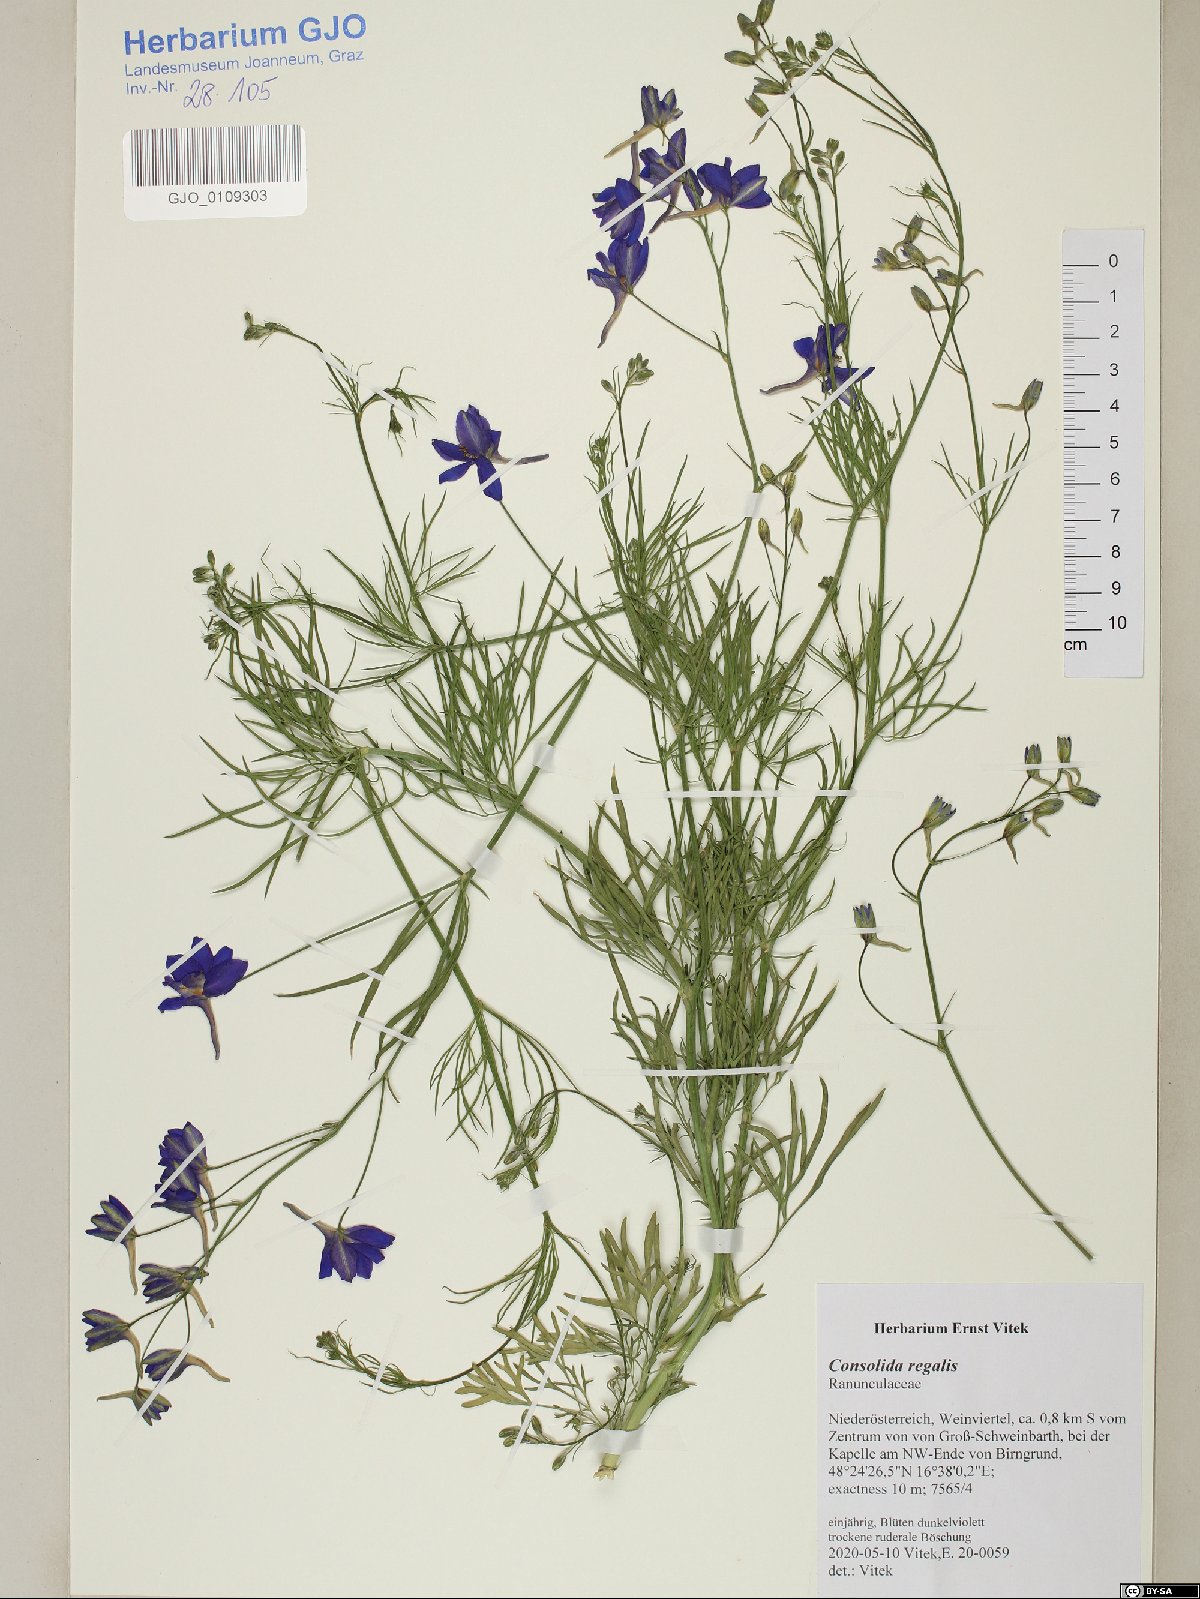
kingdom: Plantae
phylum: Tracheophyta
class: Magnoliopsida
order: Ranunculales
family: Ranunculaceae
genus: Delphinium
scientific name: Delphinium consolida
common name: Branching larkspur
